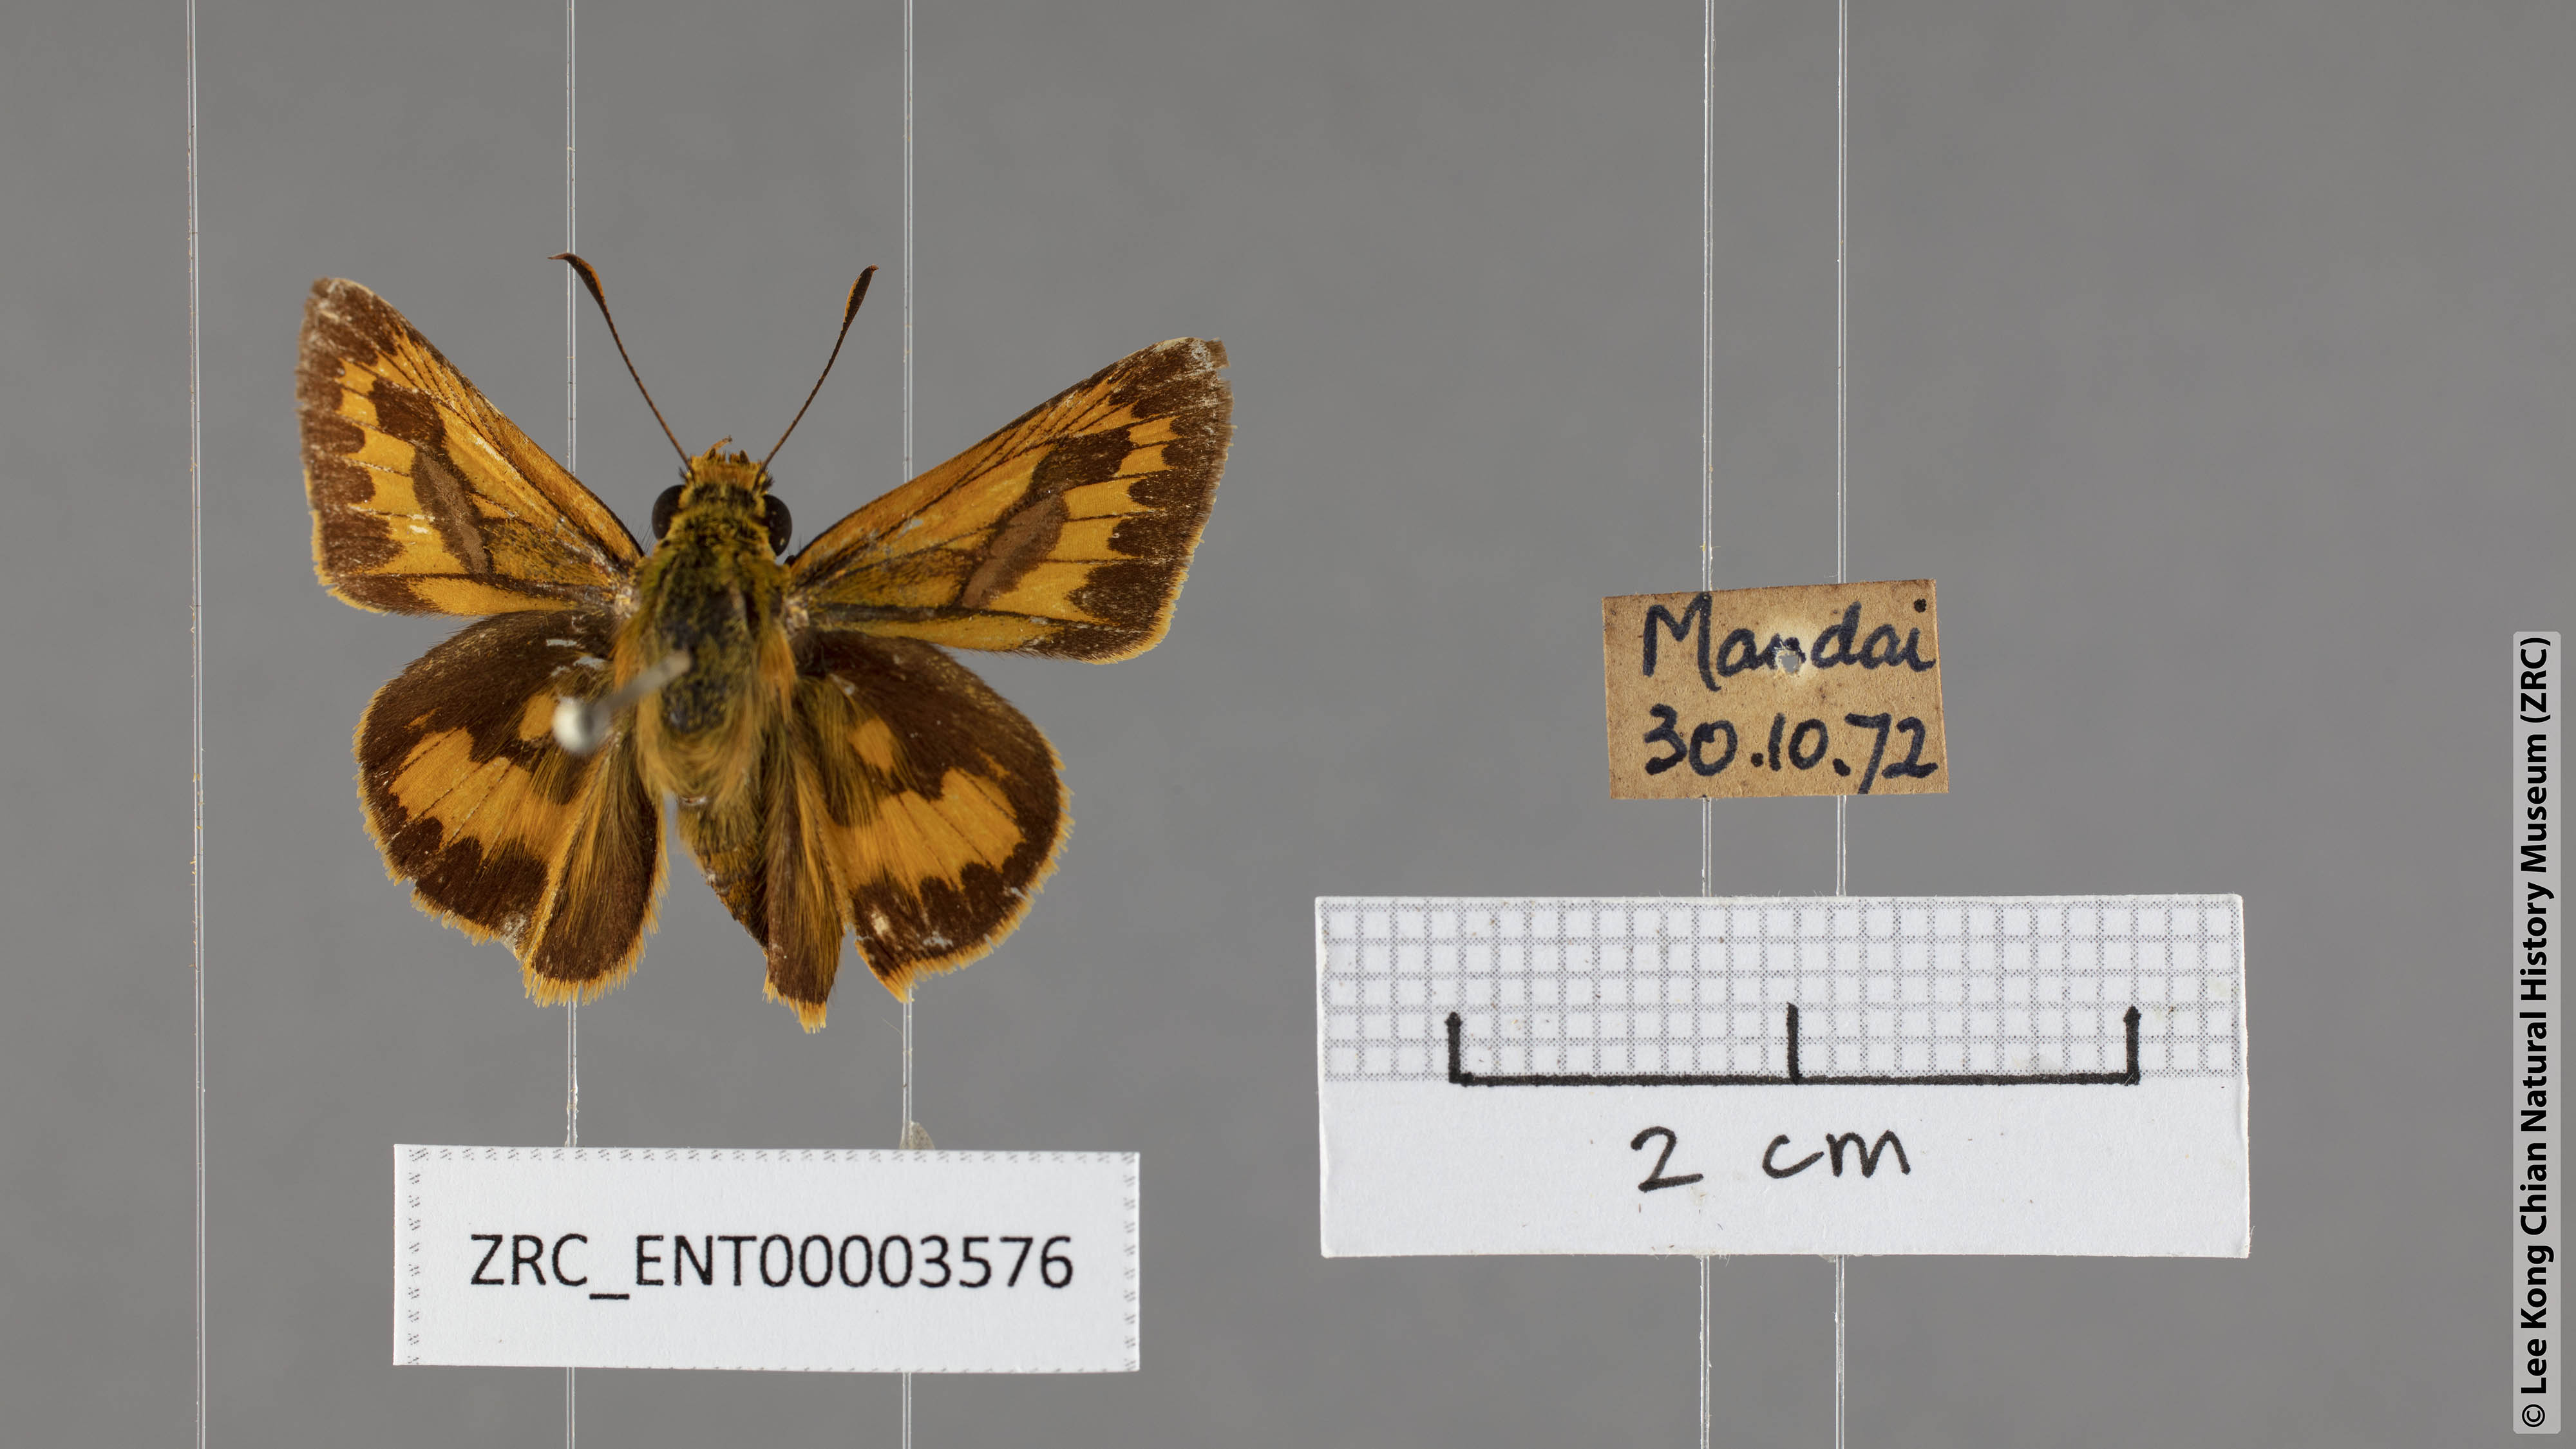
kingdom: Animalia
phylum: Arthropoda
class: Insecta
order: Lepidoptera
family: Hesperiidae
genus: Telicota
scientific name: Telicota augias
